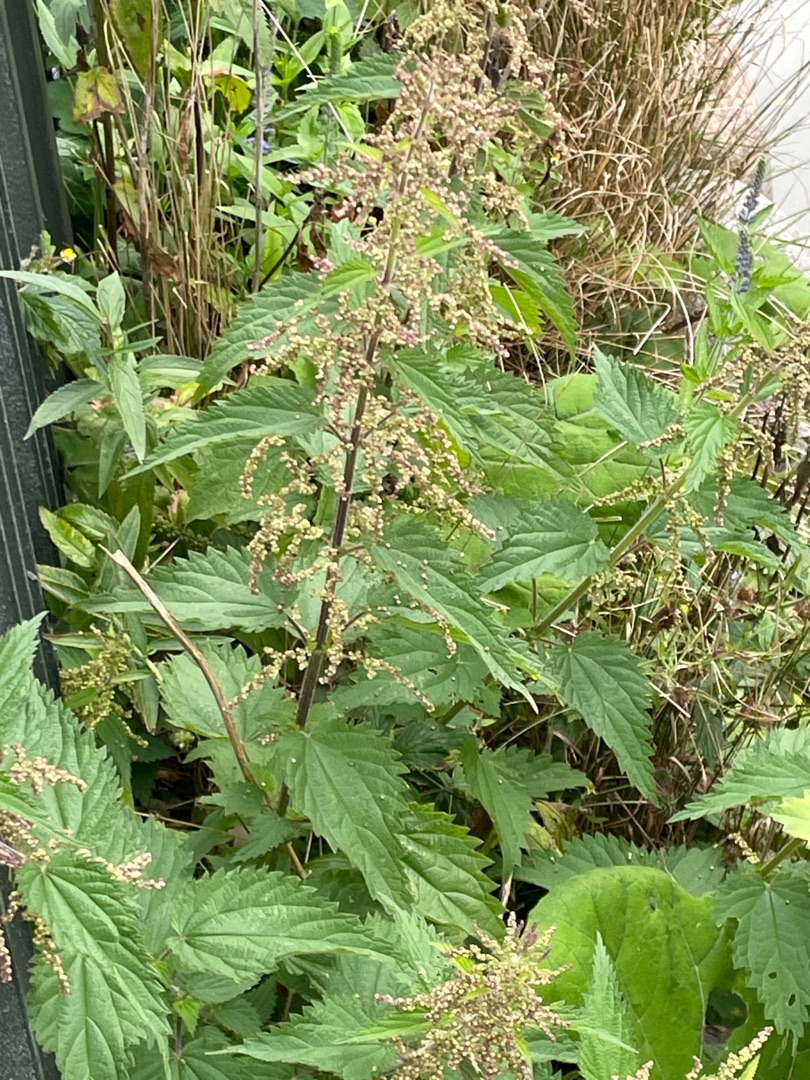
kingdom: Plantae
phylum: Tracheophyta
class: Magnoliopsida
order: Rosales
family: Urticaceae
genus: Urtica
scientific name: Urtica dioica
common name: Stor nælde
